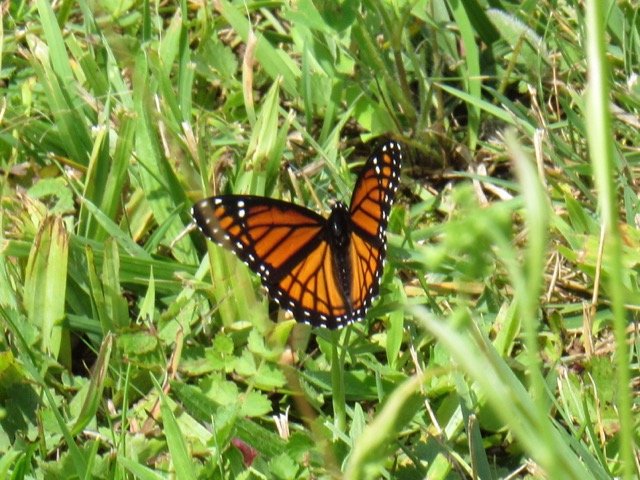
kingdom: Animalia
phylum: Arthropoda
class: Insecta
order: Lepidoptera
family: Nymphalidae
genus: Limenitis
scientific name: Limenitis archippus
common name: Viceroy
